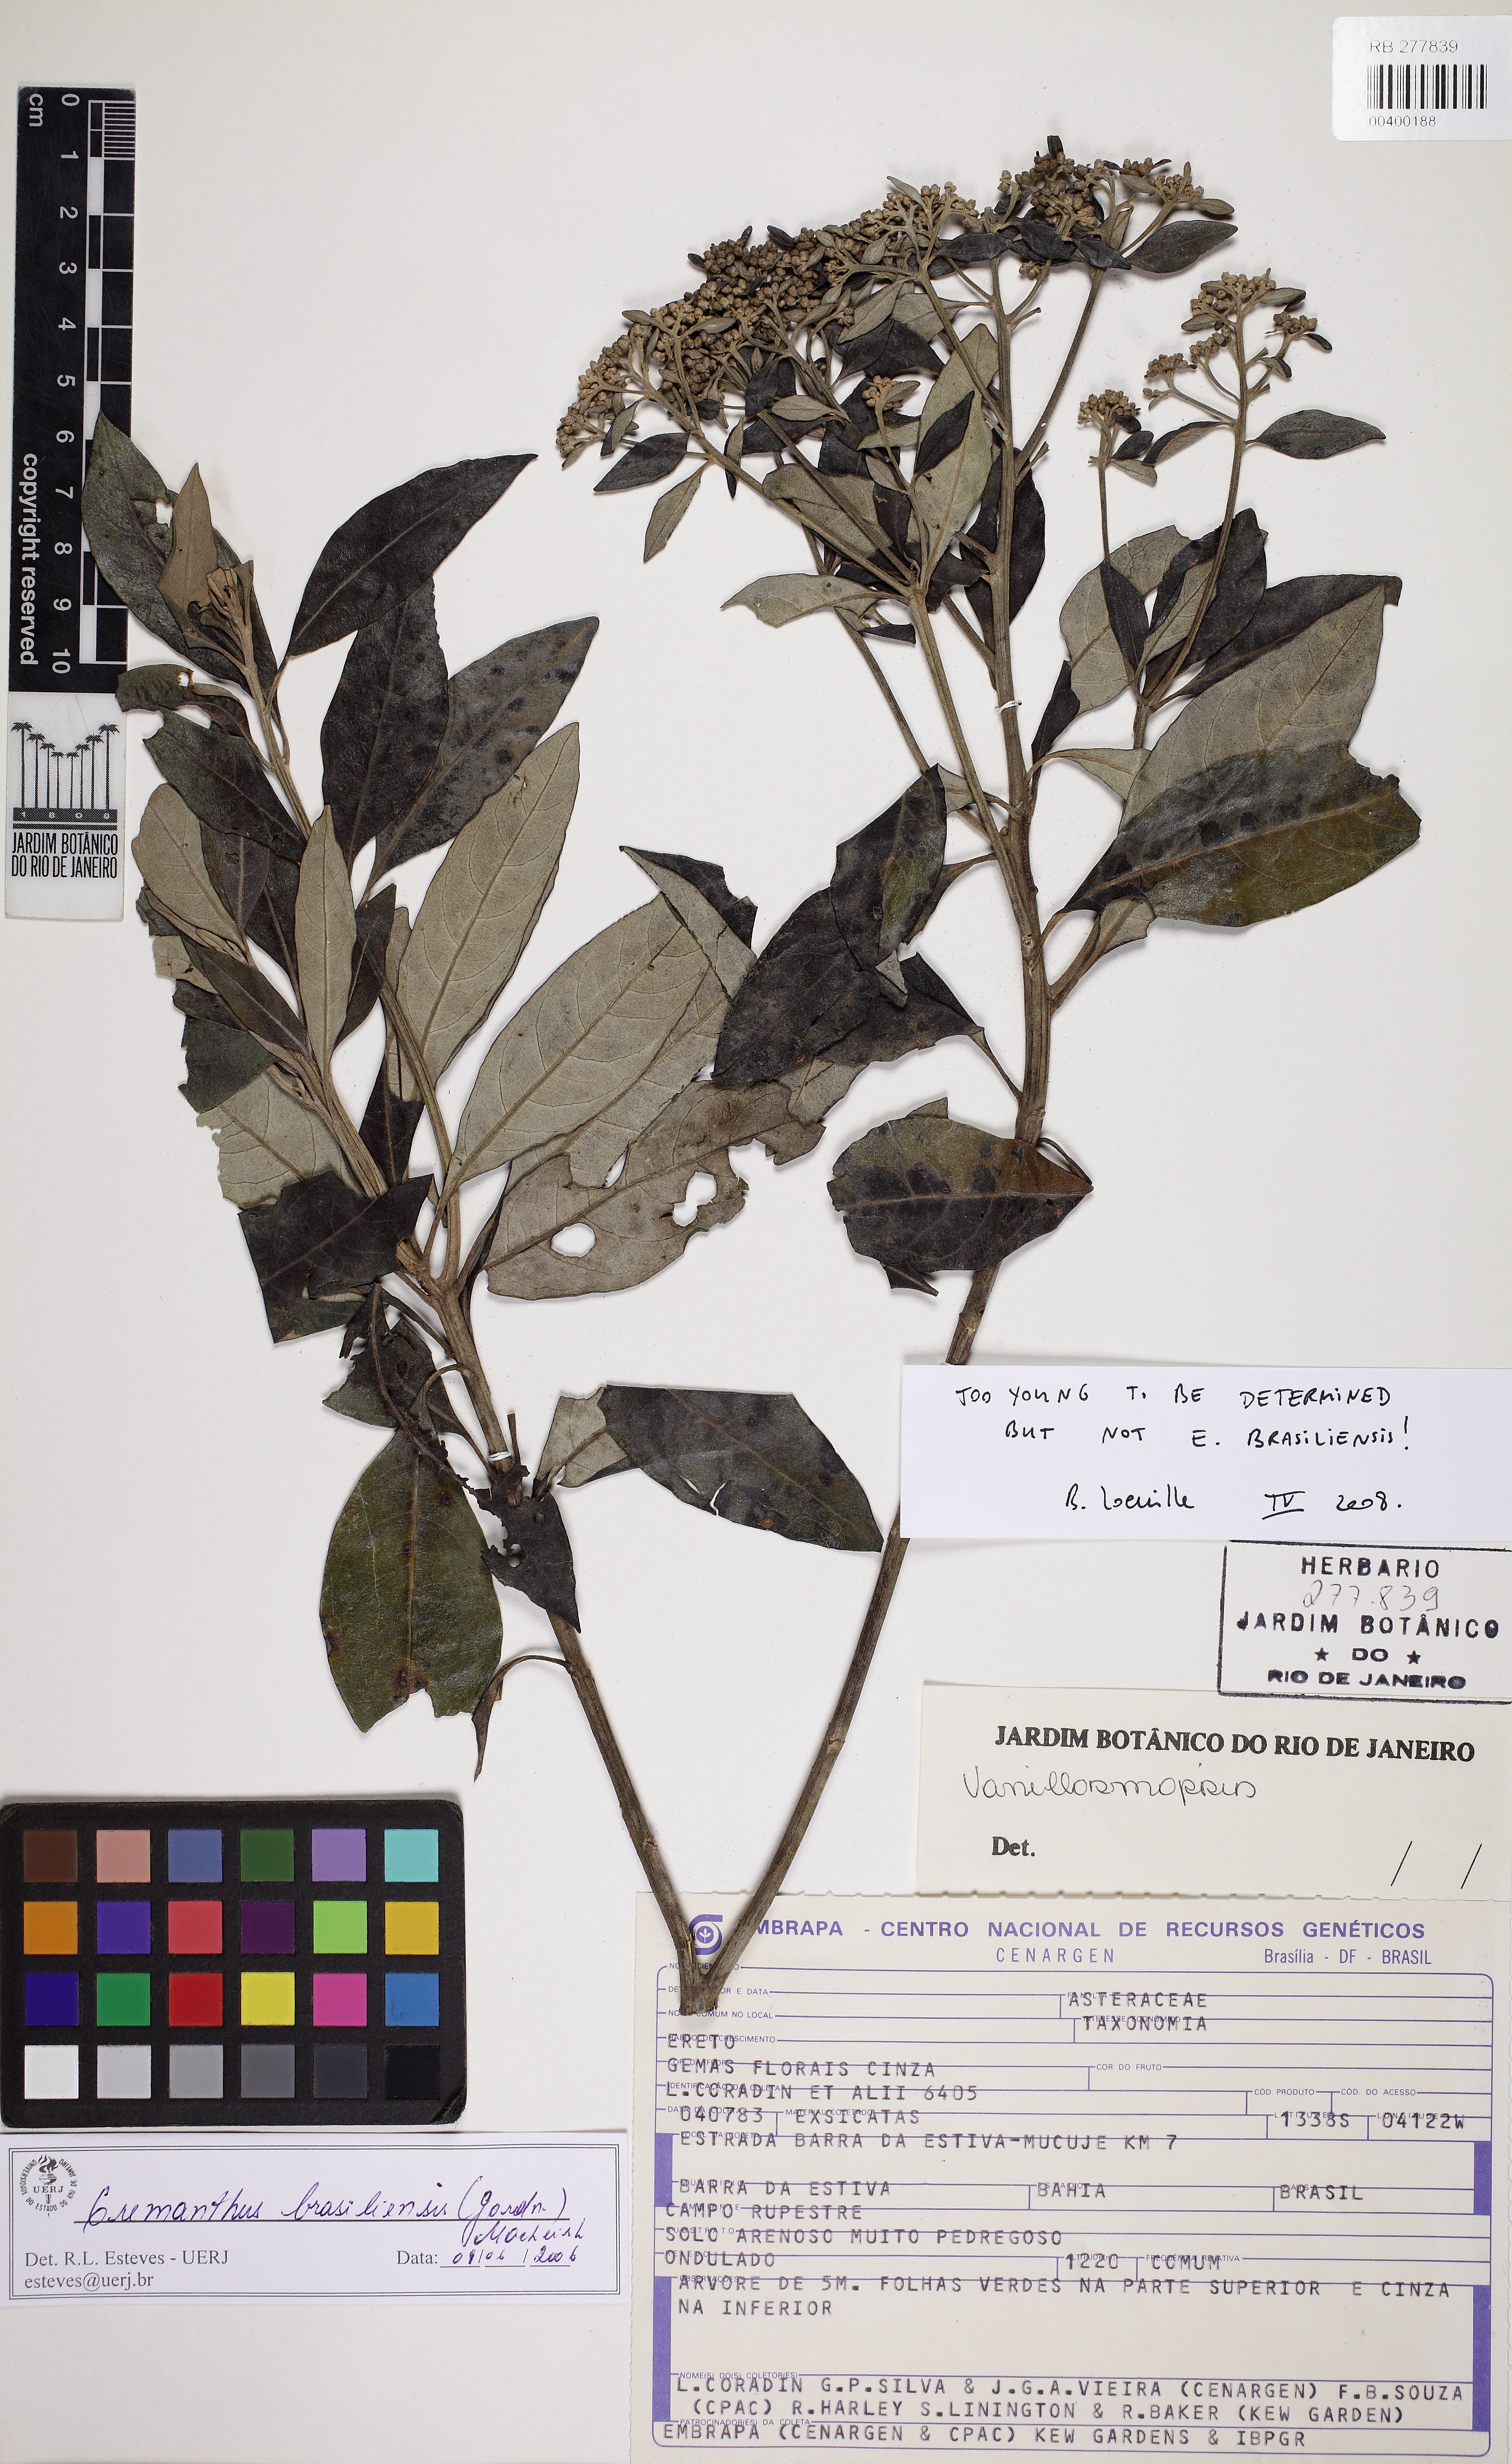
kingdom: Plantae
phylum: Tracheophyta
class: Magnoliopsida
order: Asterales
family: Asteraceae
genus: Eremanthus
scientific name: Eremanthus
